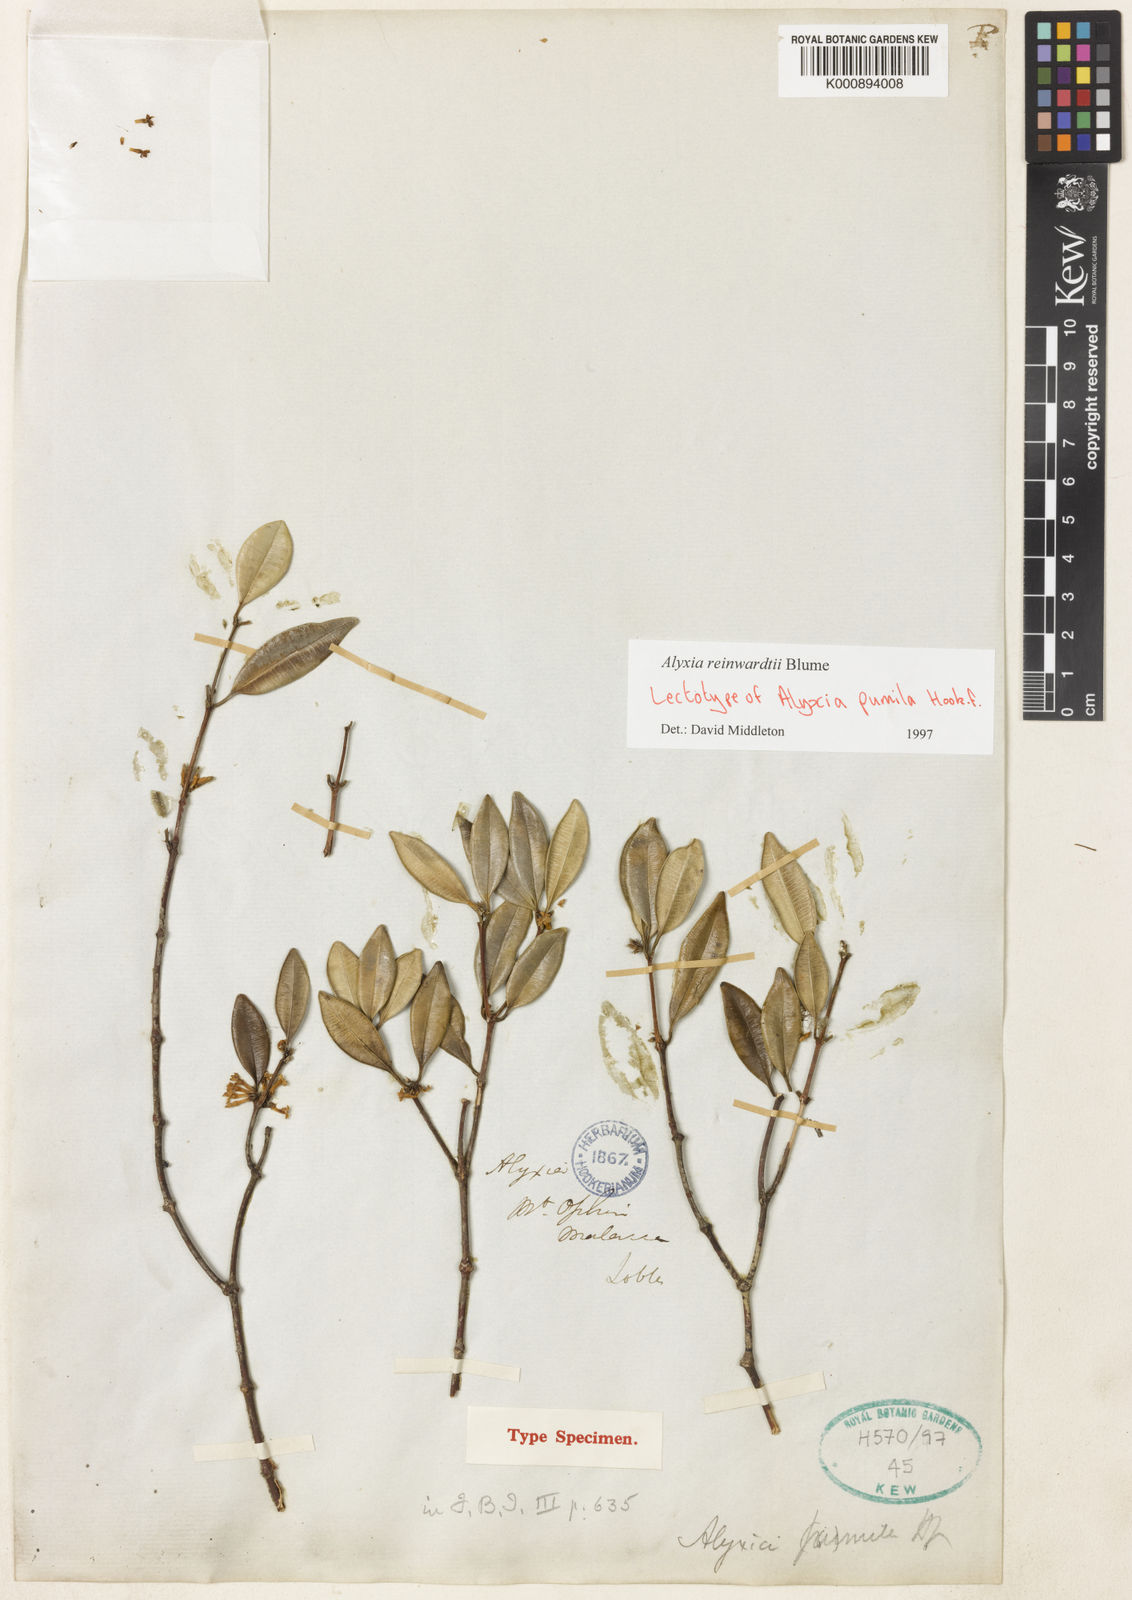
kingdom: Plantae
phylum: Tracheophyta
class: Magnoliopsida
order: Gentianales
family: Apocynaceae
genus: Alyxia
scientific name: Alyxia reinwardtii
